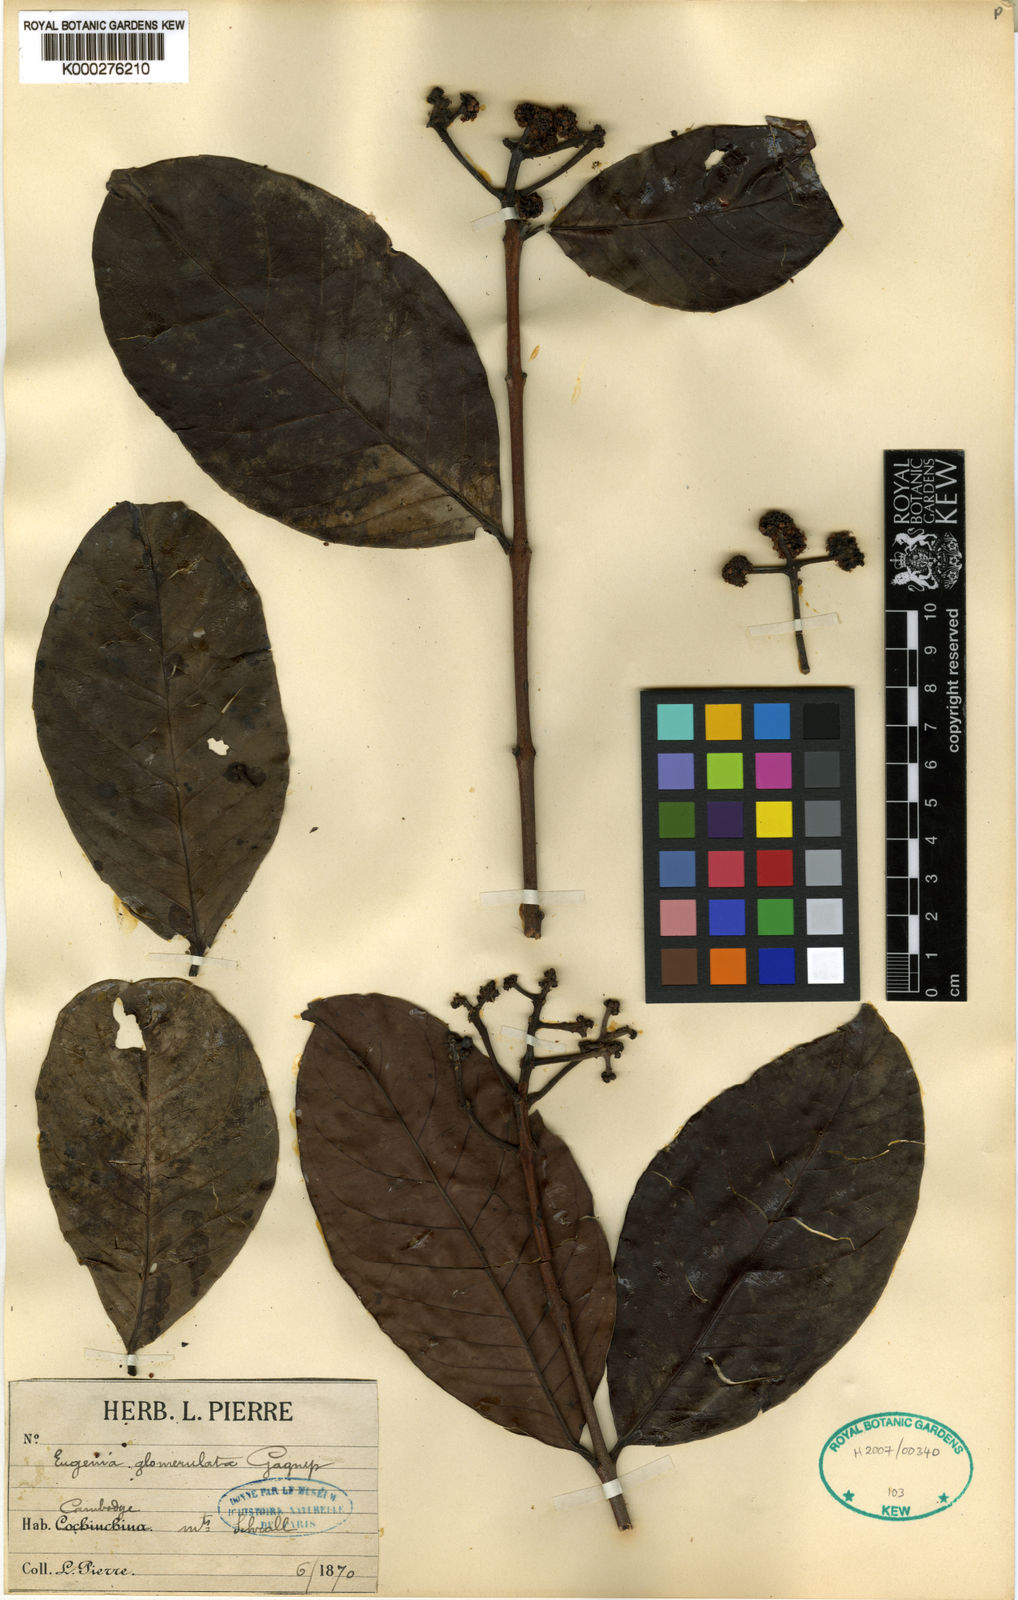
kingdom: Plantae
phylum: Tracheophyta
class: Magnoliopsida
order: Myrtales
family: Myrtaceae
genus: Syzygium
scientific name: Syzygium glomerulatum
